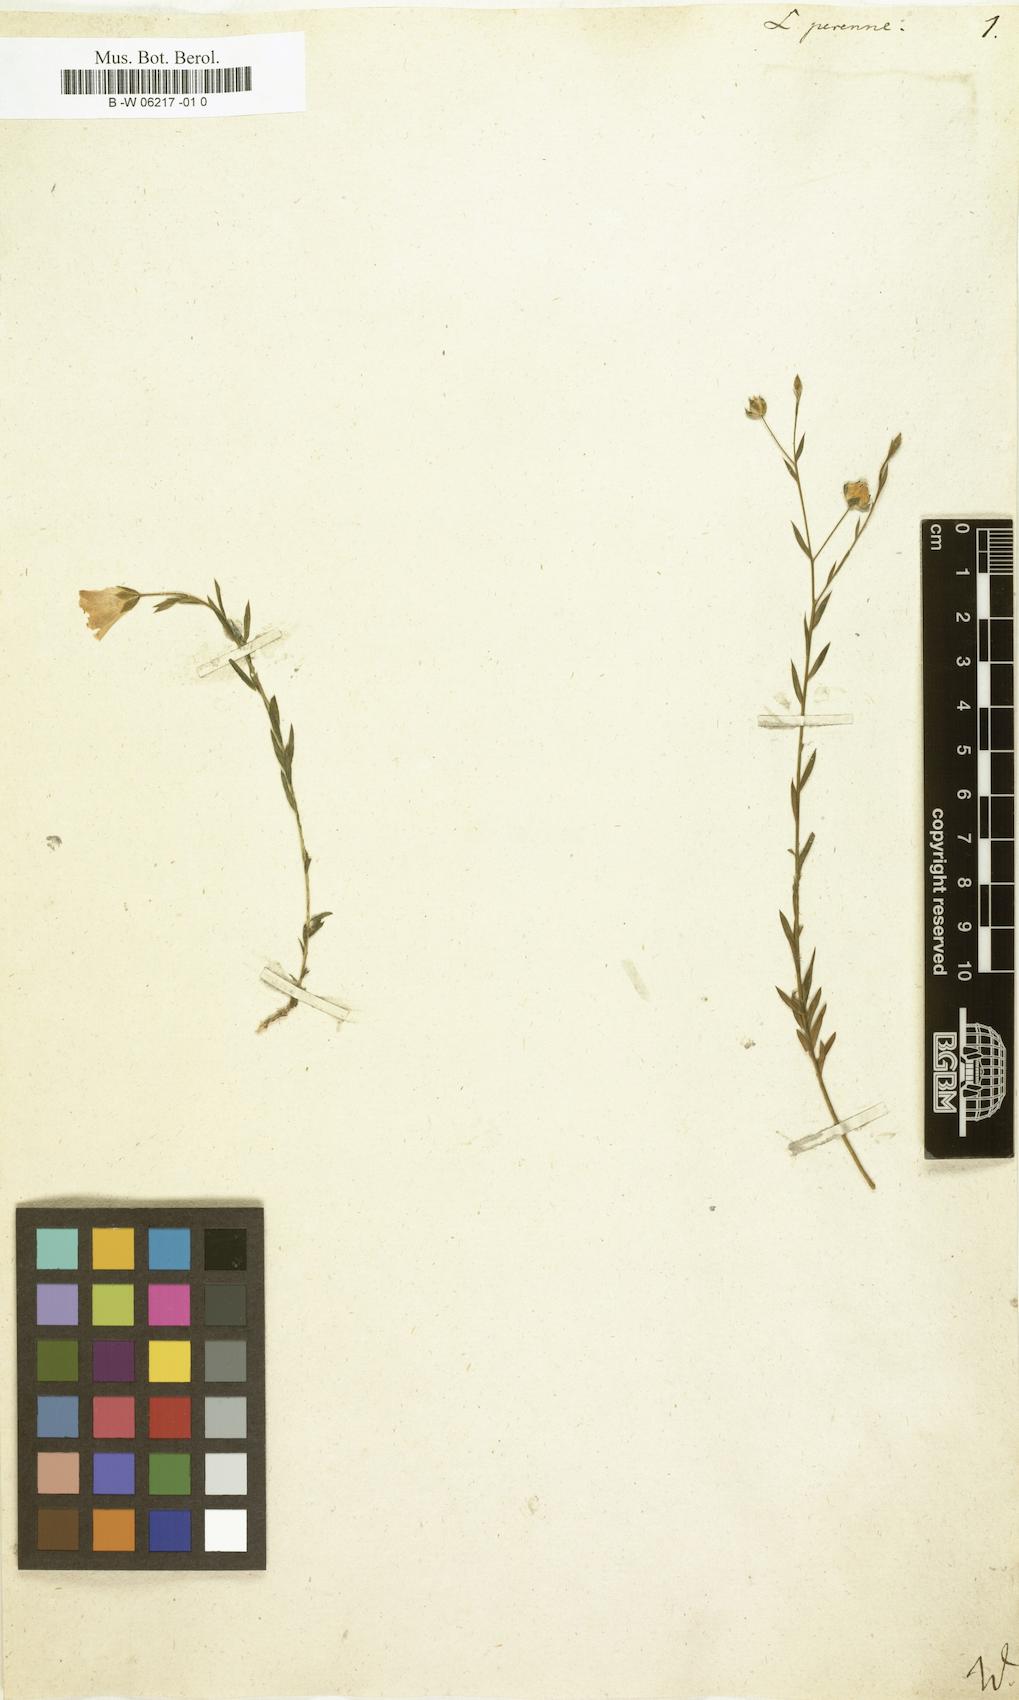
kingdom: Plantae
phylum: Tracheophyta
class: Magnoliopsida
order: Malpighiales
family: Linaceae
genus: Linum
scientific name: Linum perenne
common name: Blue flax
